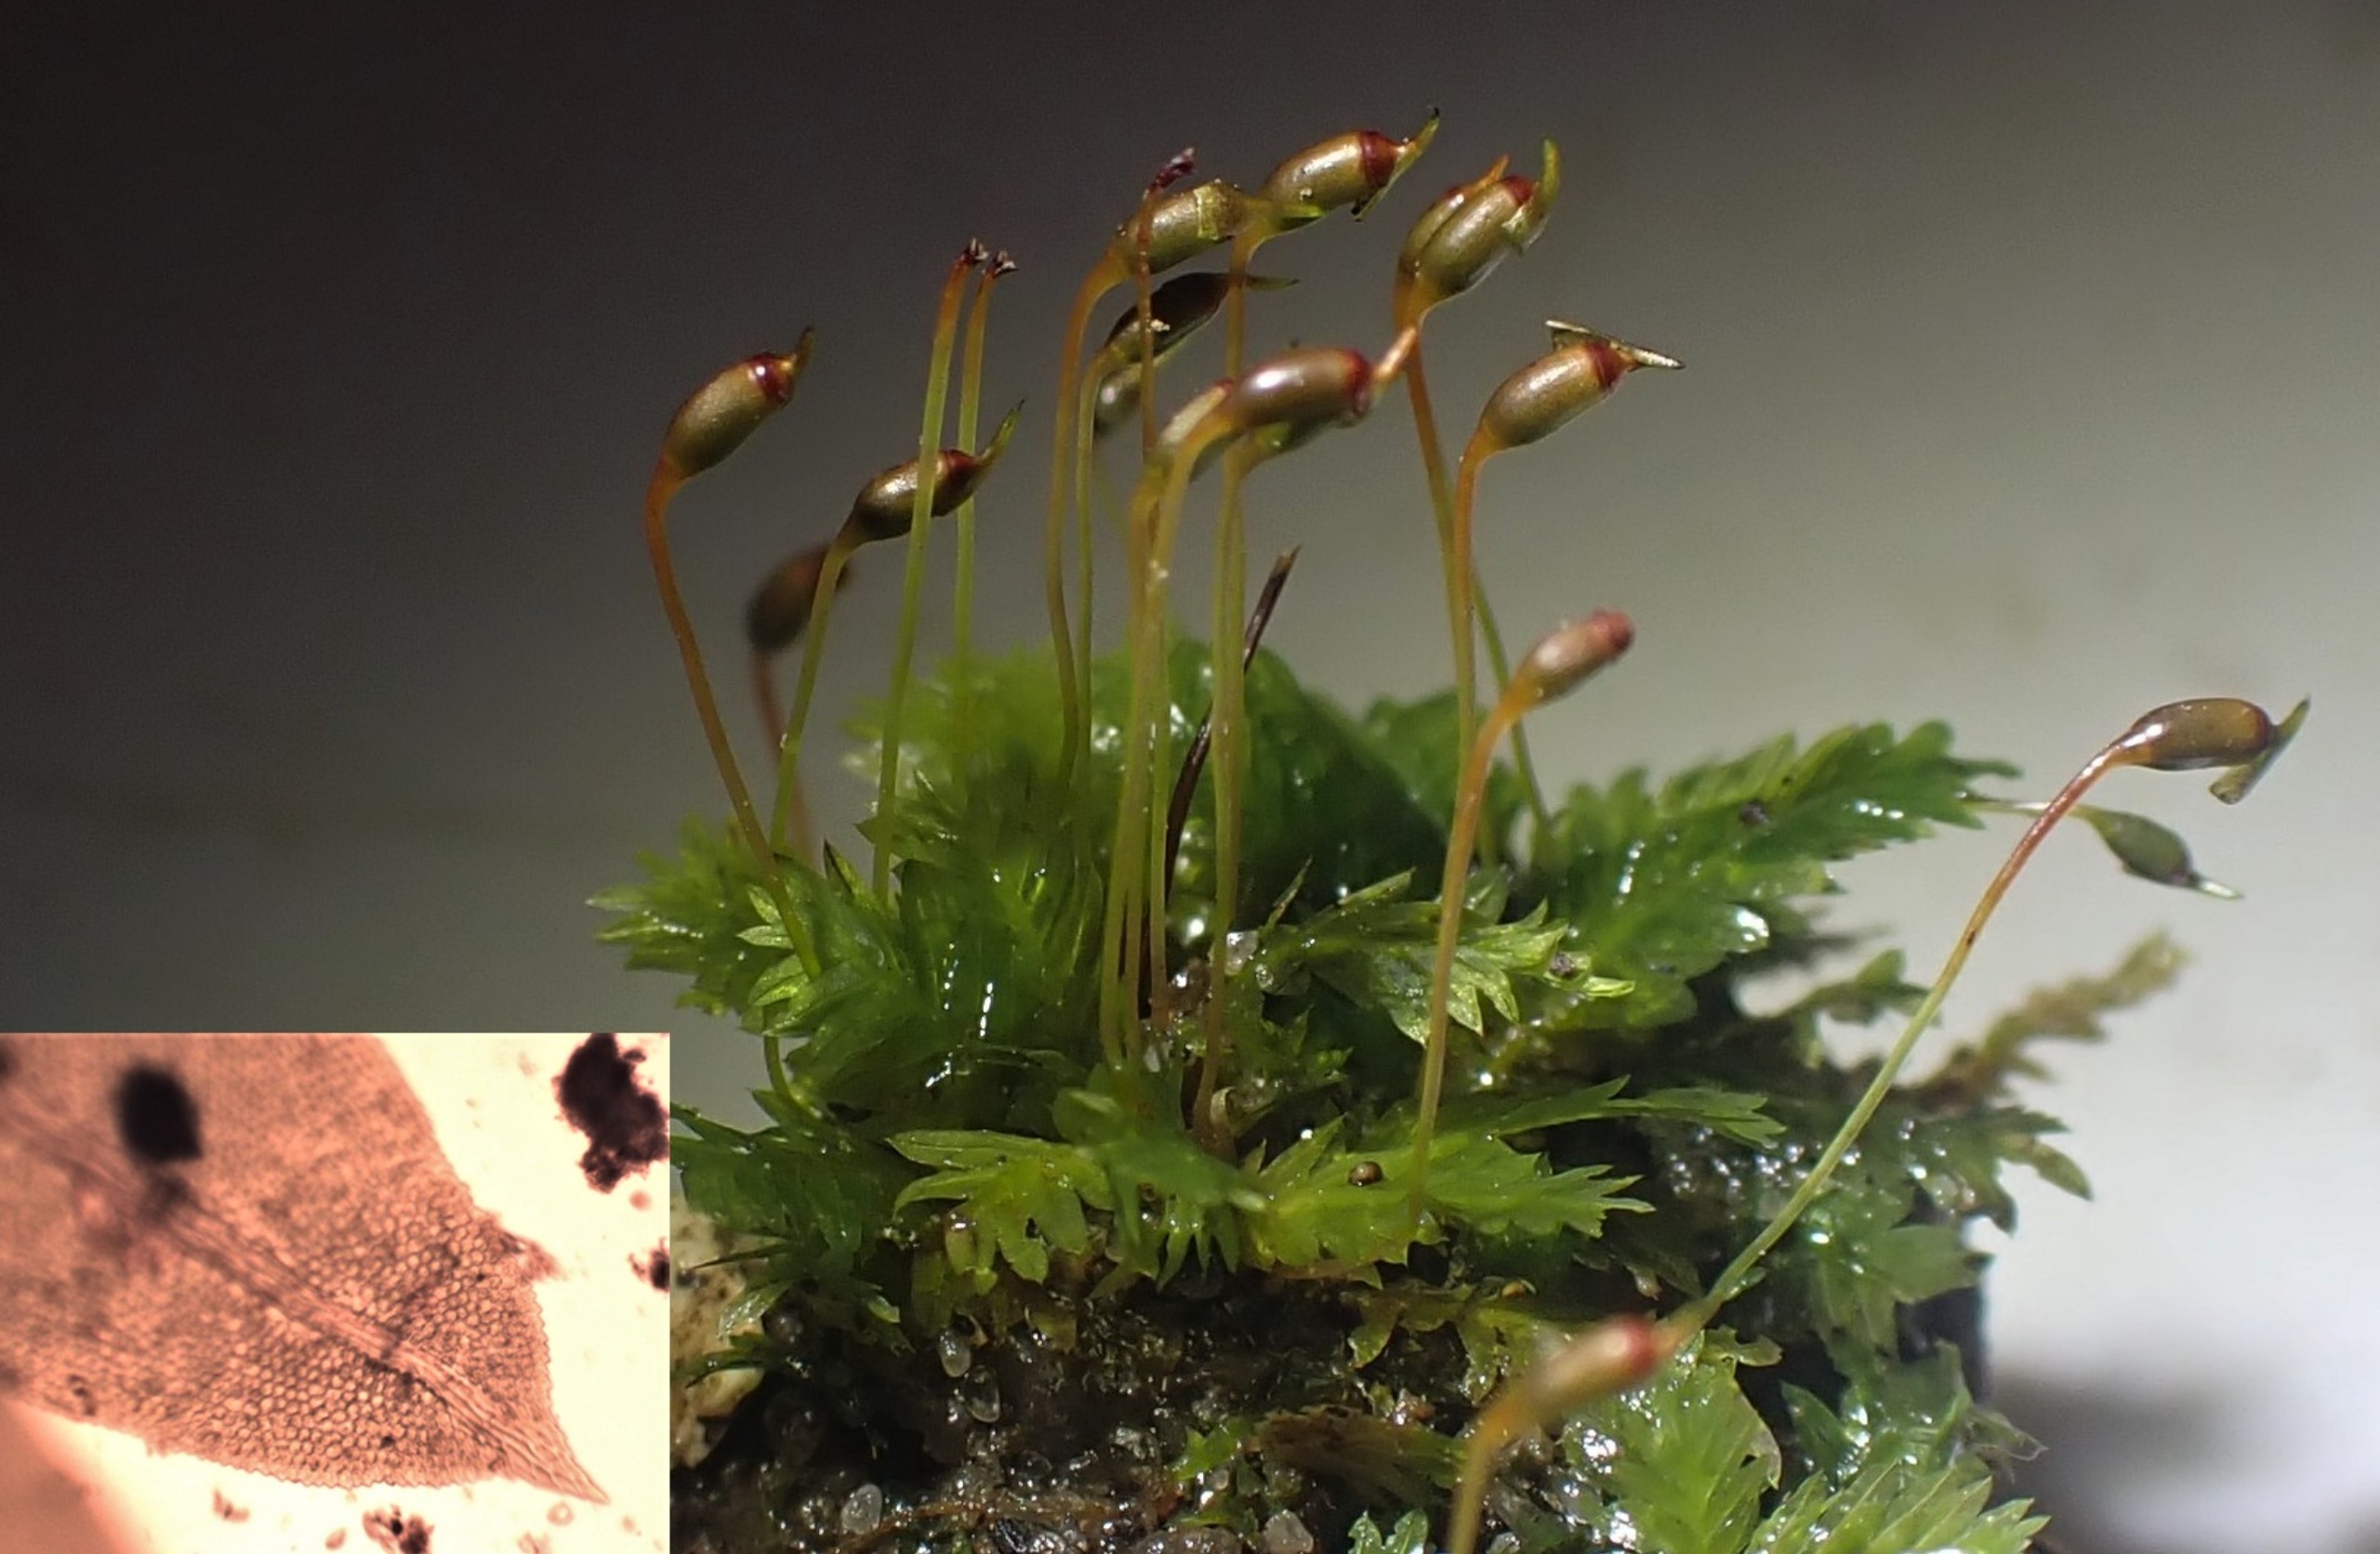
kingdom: Plantae
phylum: Bryophyta
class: Bryopsida
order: Dicranales
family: Fissidentaceae
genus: Fissidens
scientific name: Fissidens taxifolius
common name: Taksbladet rademos
